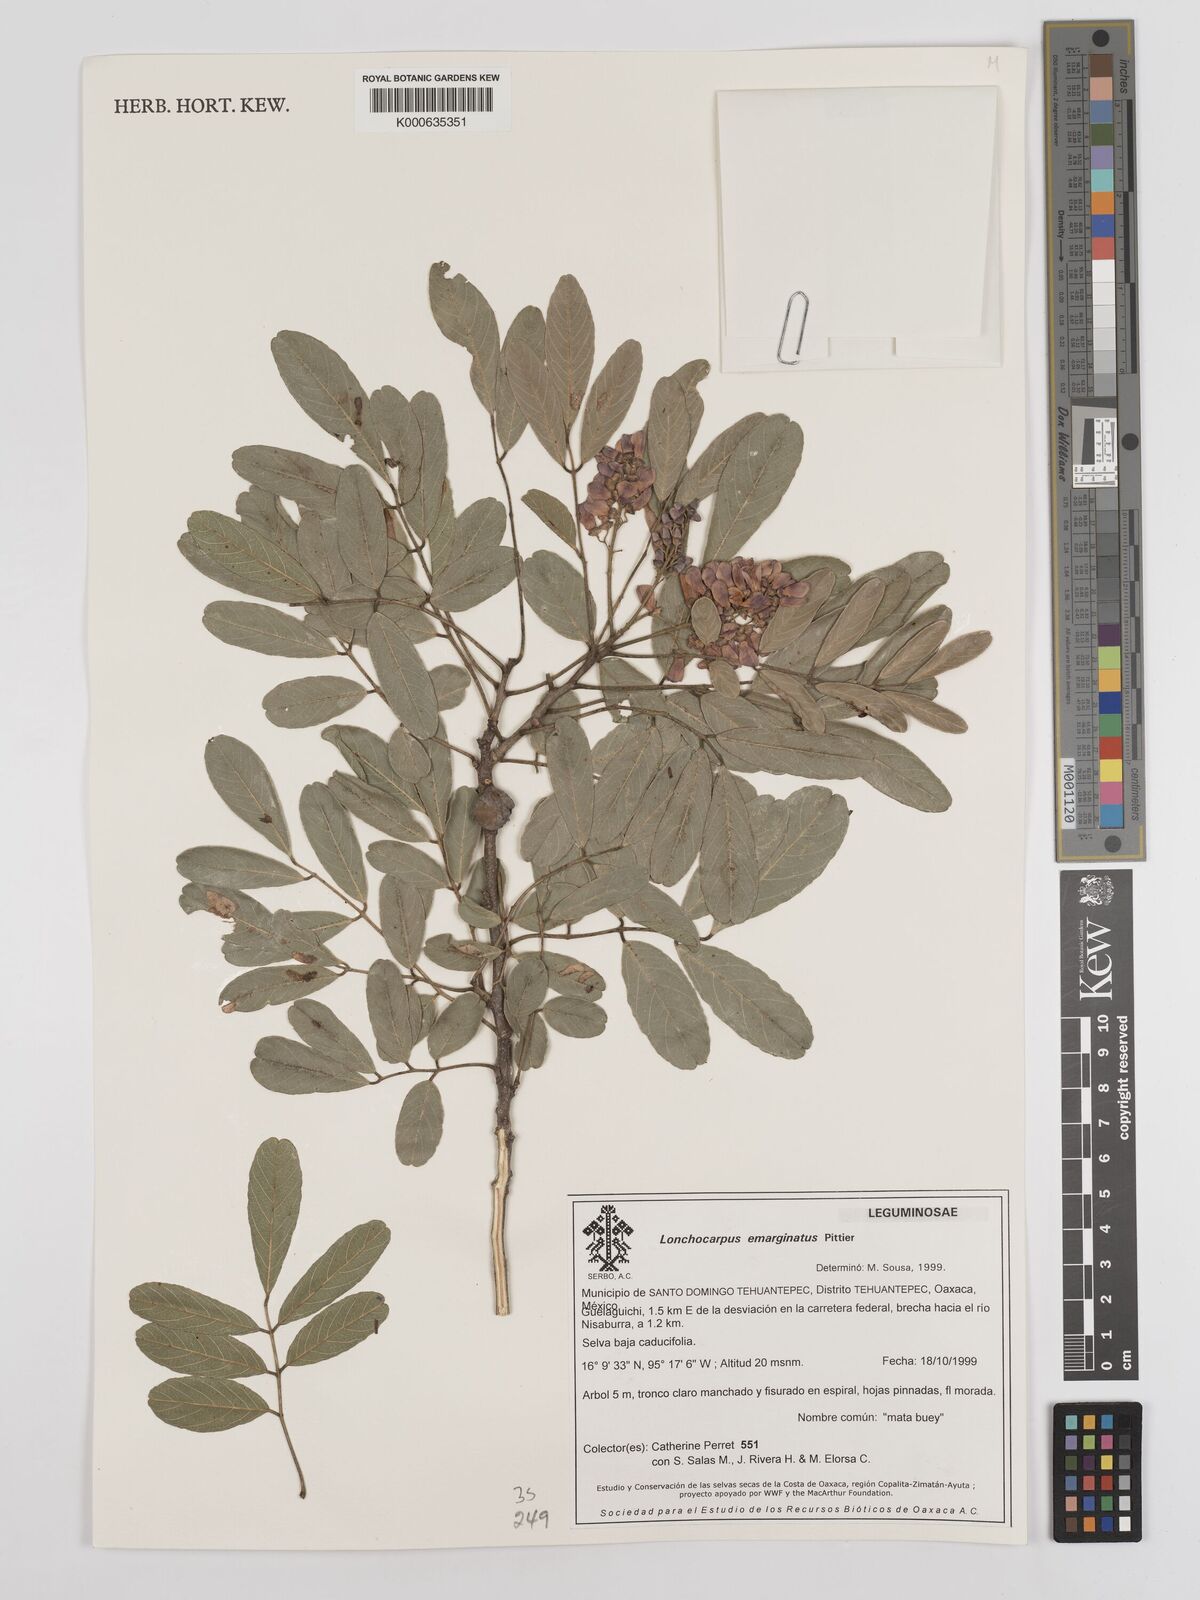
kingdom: Plantae
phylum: Tracheophyta
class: Magnoliopsida
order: Fabales
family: Fabaceae
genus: Lonchocarpus
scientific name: Lonchocarpus emarginatus
